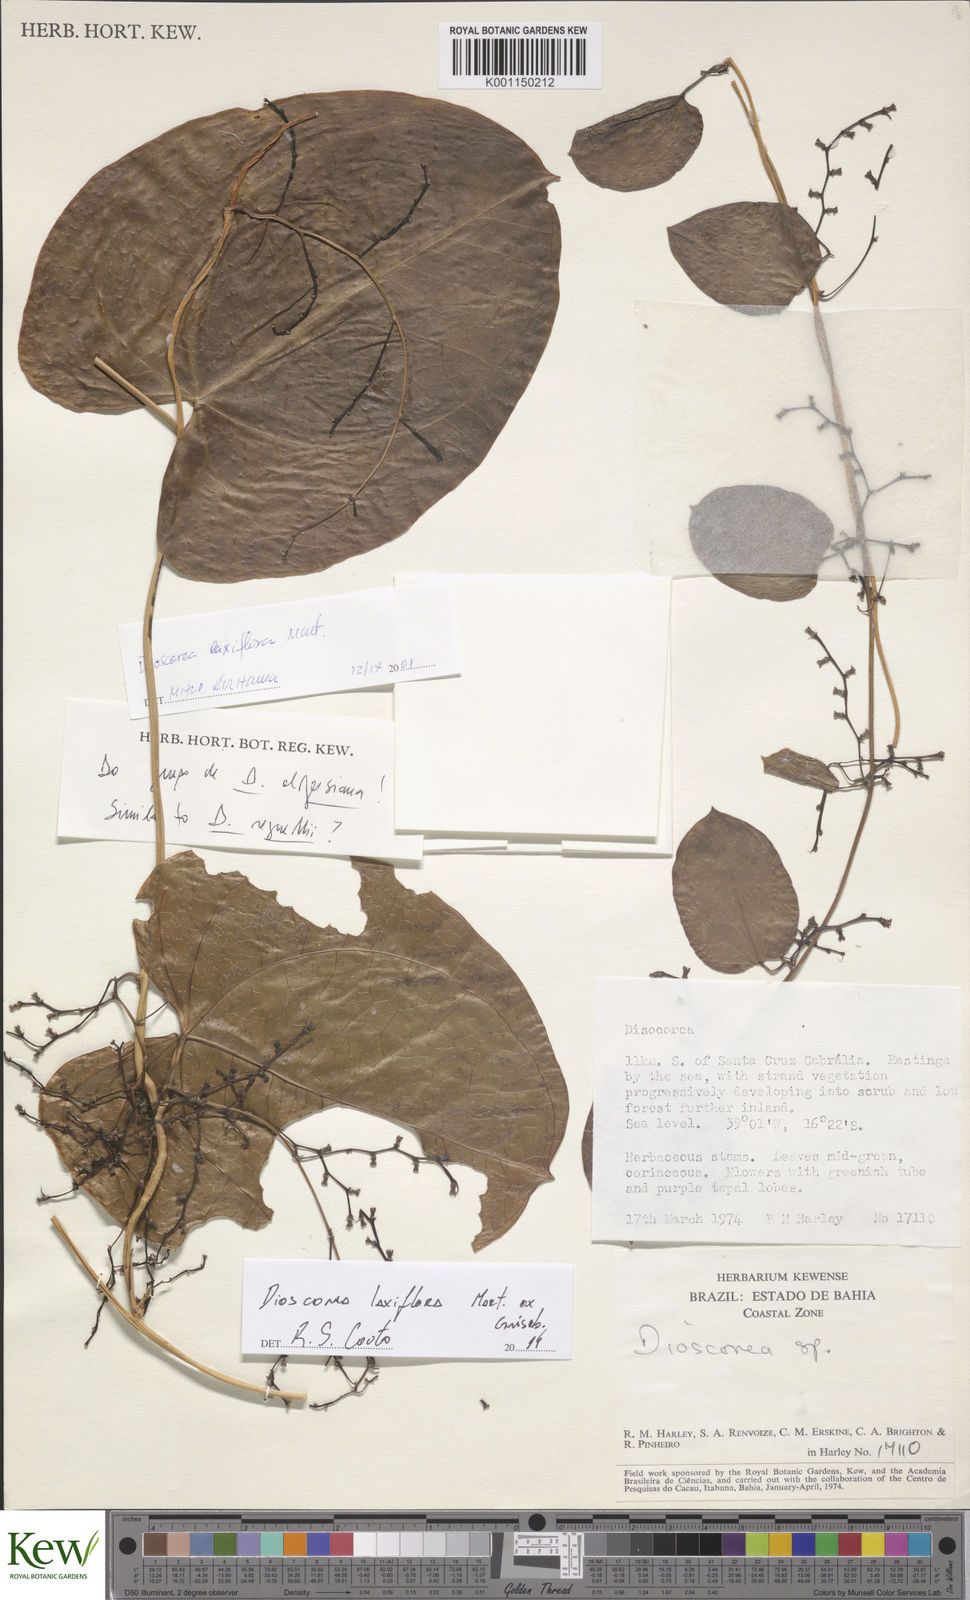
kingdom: Plantae
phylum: Tracheophyta
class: Liliopsida
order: Dioscoreales
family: Dioscoreaceae
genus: Dioscorea
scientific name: Dioscorea laxiflora
